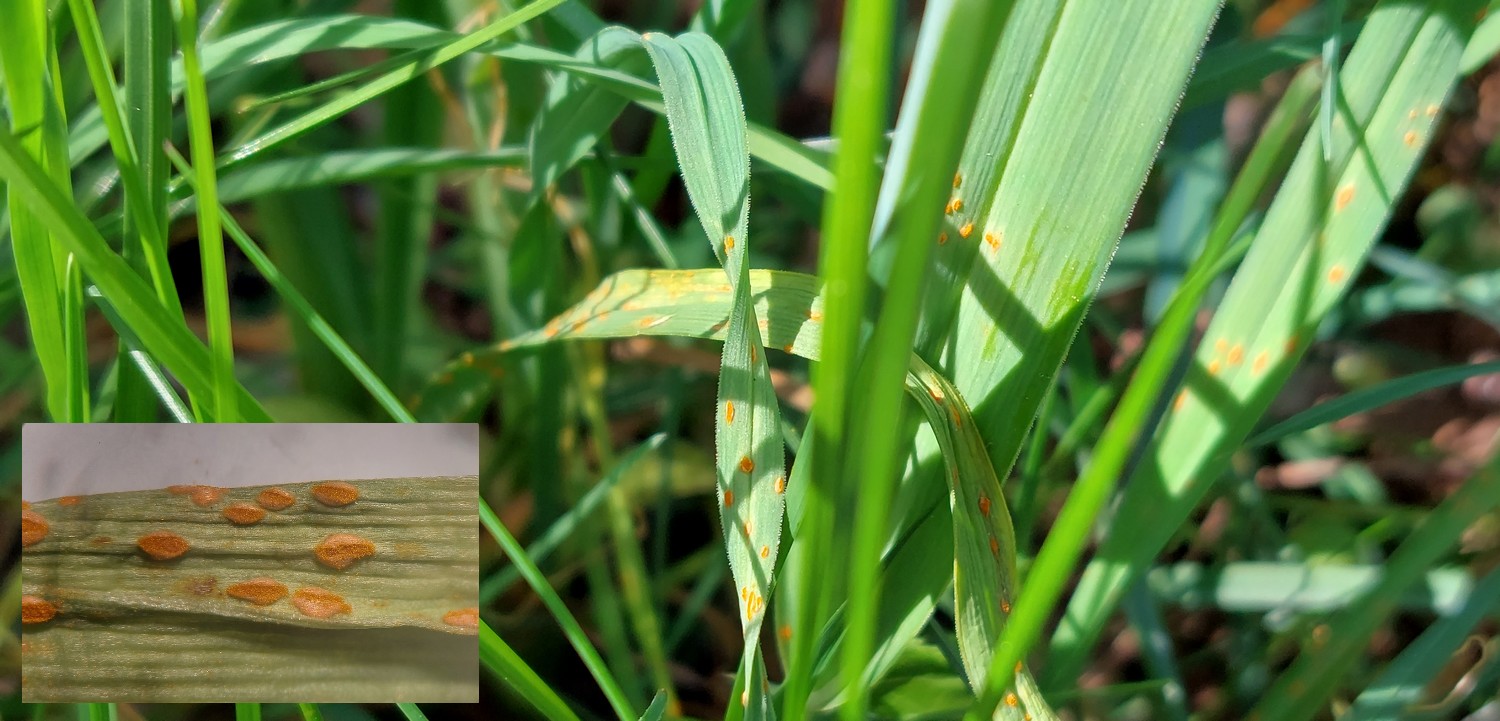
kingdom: Fungi
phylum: Basidiomycota
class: Pucciniomycetes
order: Pucciniales
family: Pucciniaceae
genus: Puccinia
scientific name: Puccinia
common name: tvecellerust
